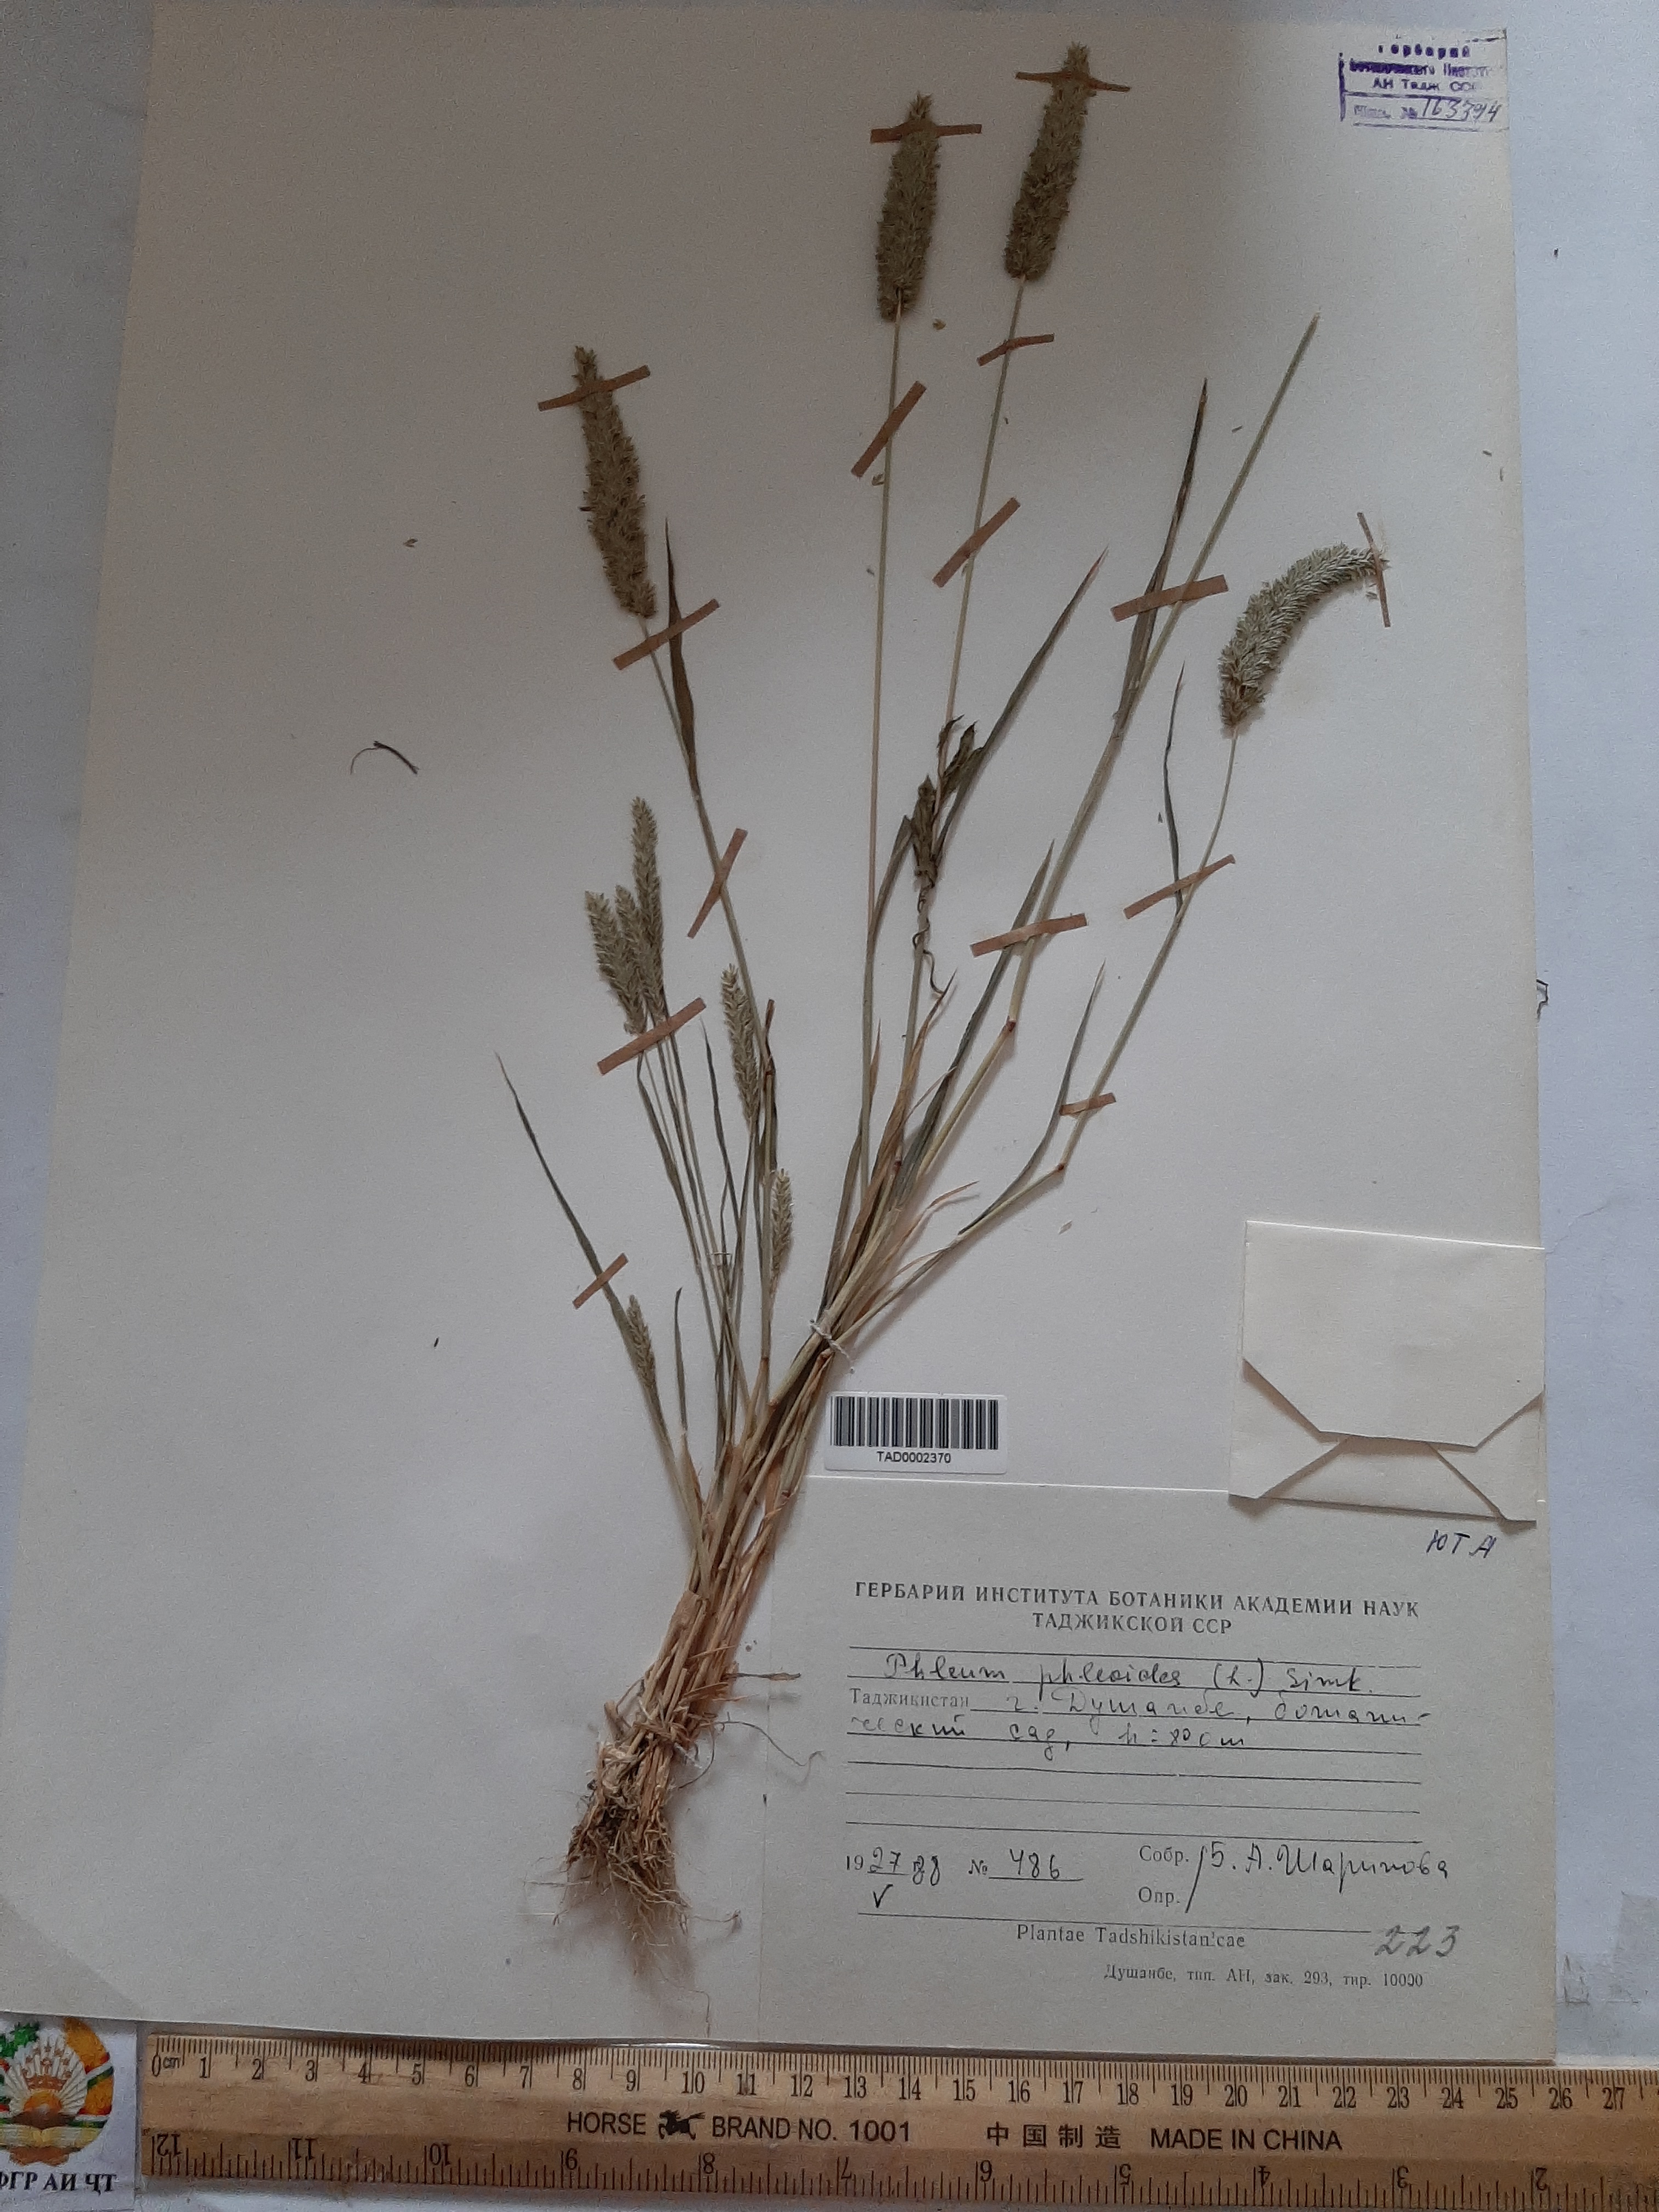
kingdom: Plantae
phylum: Tracheophyta
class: Liliopsida
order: Poales
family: Poaceae
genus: Phleum
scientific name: Phleum phleoides
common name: Purple-stem cat's-tail
